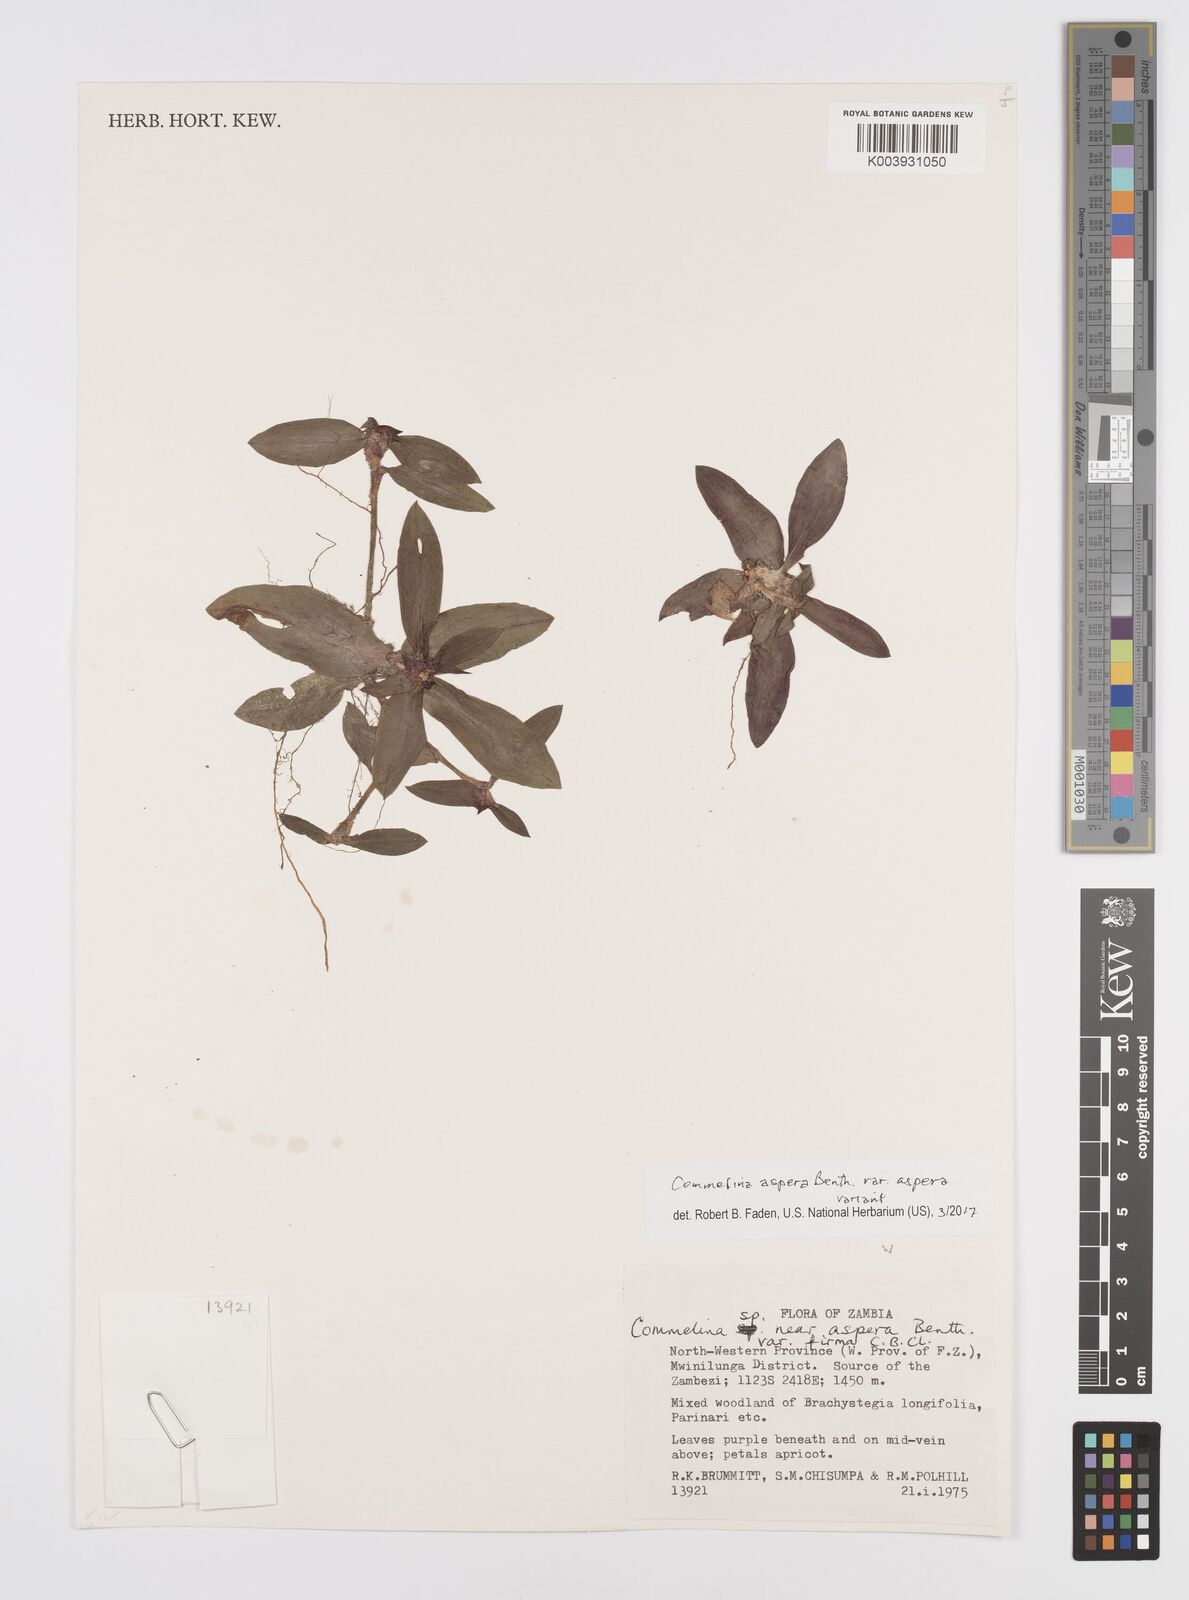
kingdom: Plantae
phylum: Tracheophyta
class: Liliopsida
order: Commelinales
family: Commelinaceae
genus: Commelina
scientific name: Commelina aspera
